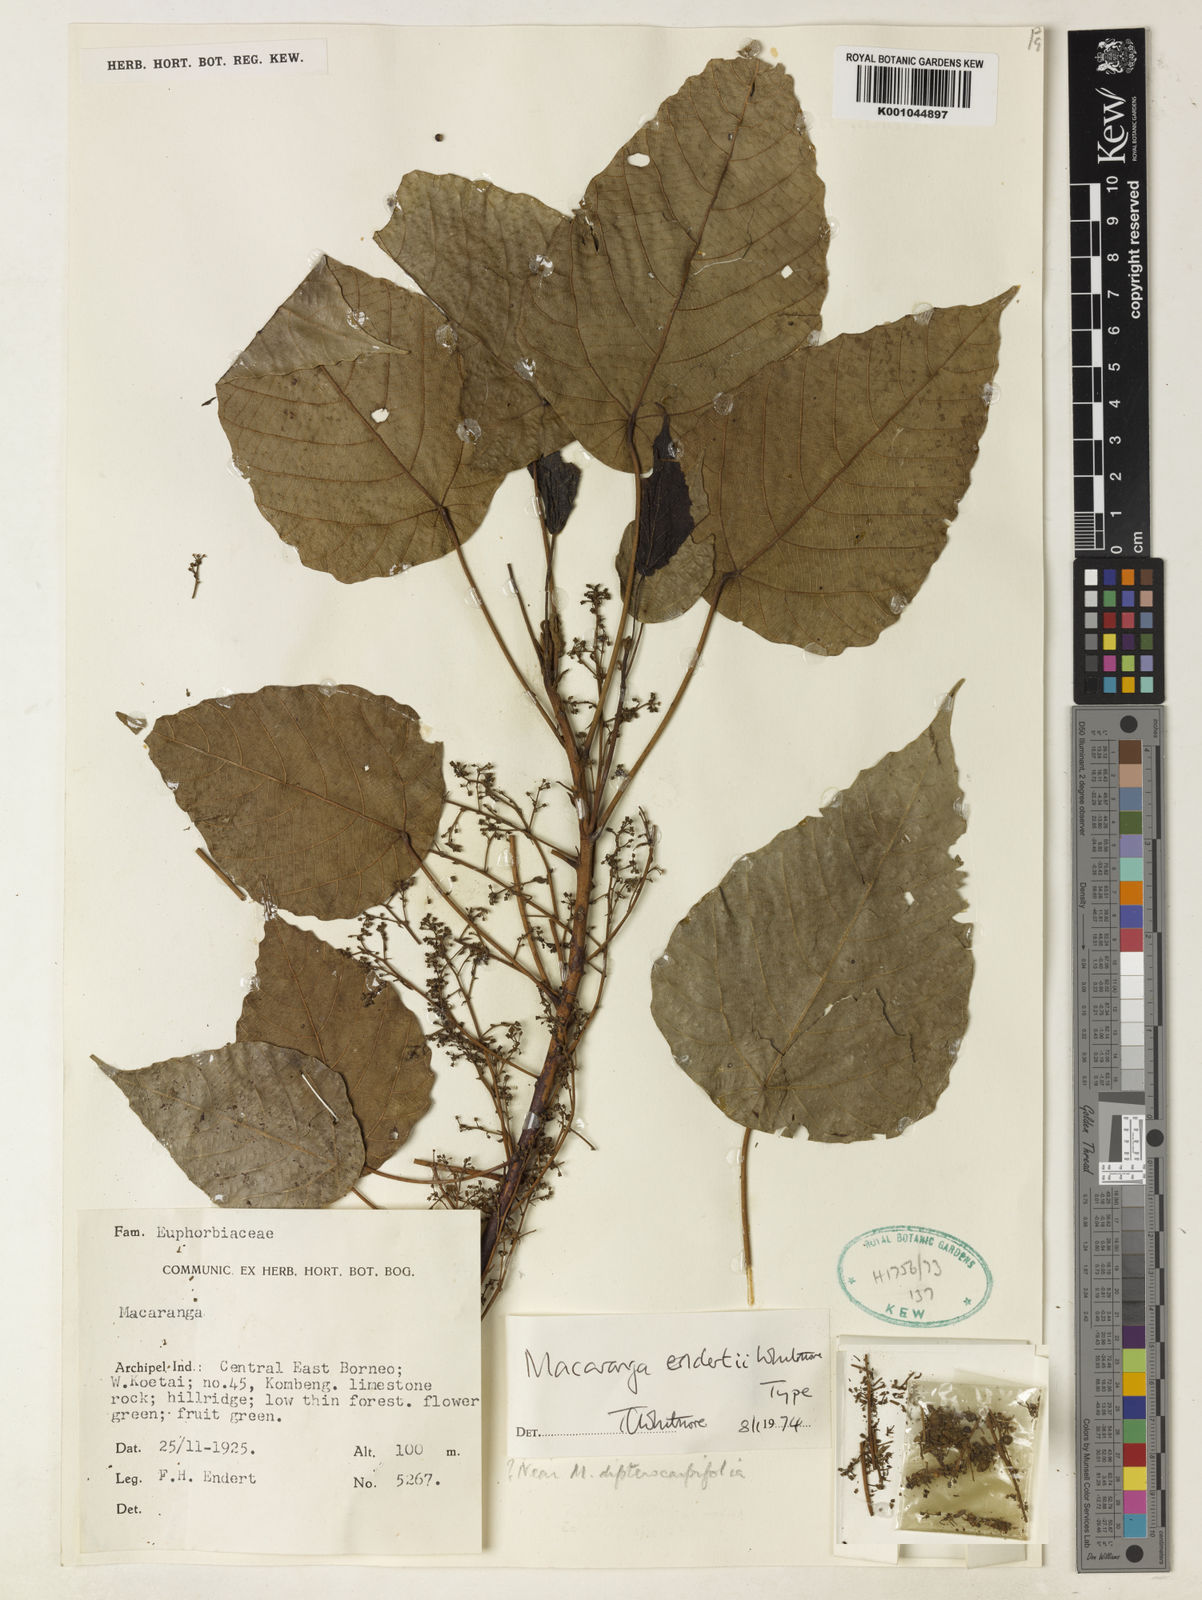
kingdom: Plantae
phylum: Tracheophyta
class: Magnoliopsida
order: Malpighiales
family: Euphorbiaceae
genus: Macaranga
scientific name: Macaranga endertii
